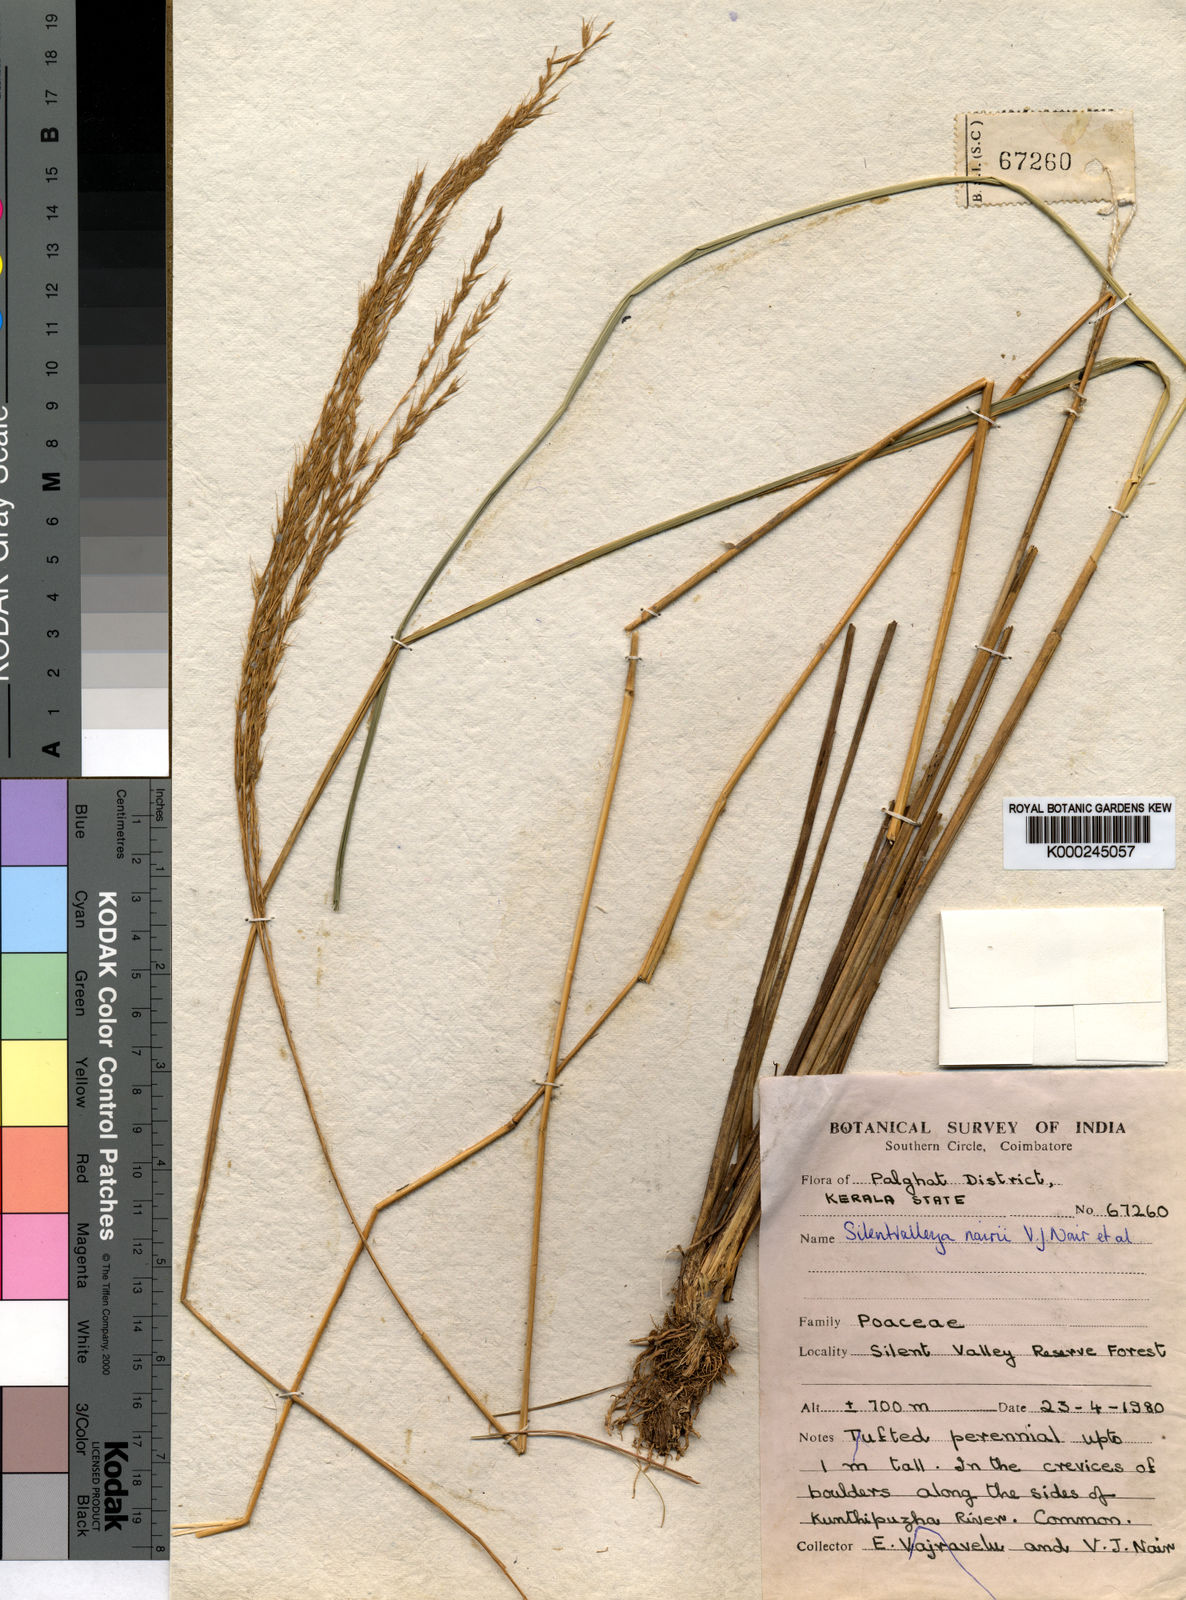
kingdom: Plantae
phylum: Tracheophyta
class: Liliopsida
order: Poales
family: Poaceae
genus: Silentvalleya
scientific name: Silentvalleya nairii
